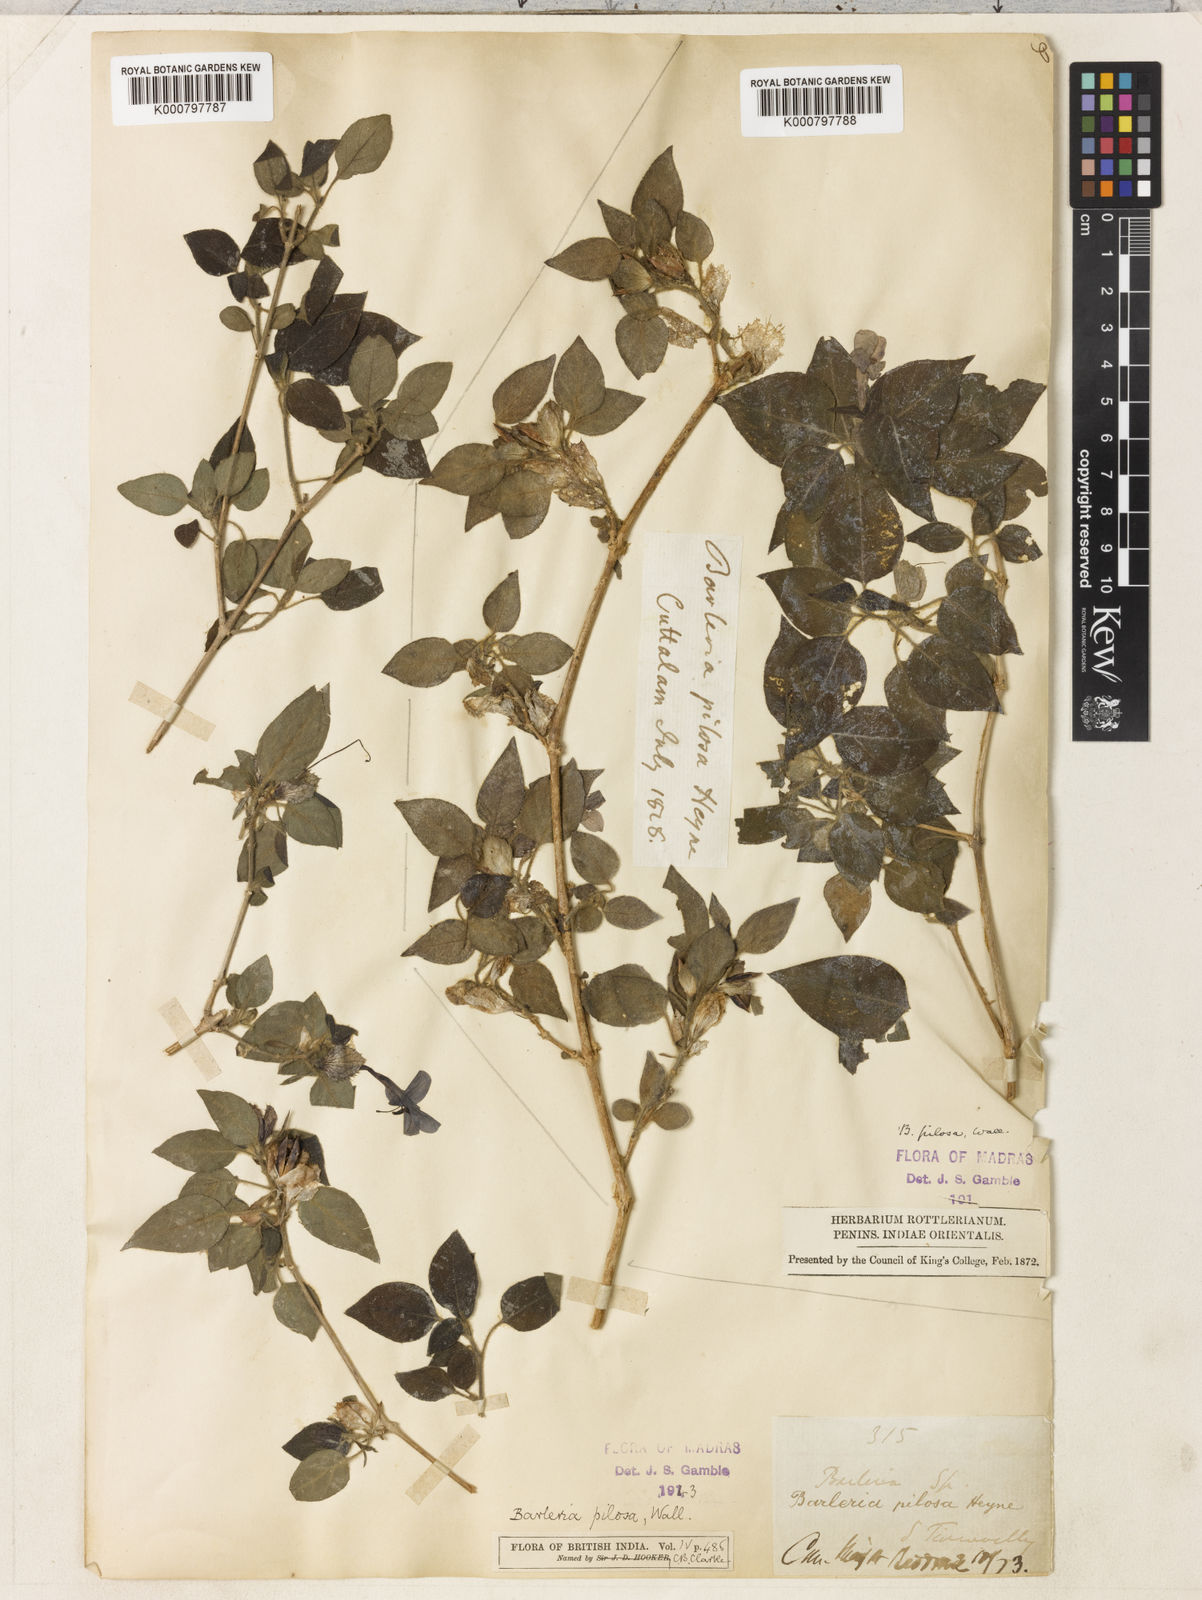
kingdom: Plantae
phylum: Tracheophyta
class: Magnoliopsida
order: Lamiales
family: Acanthaceae
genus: Barleria
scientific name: Barleria pilosa
